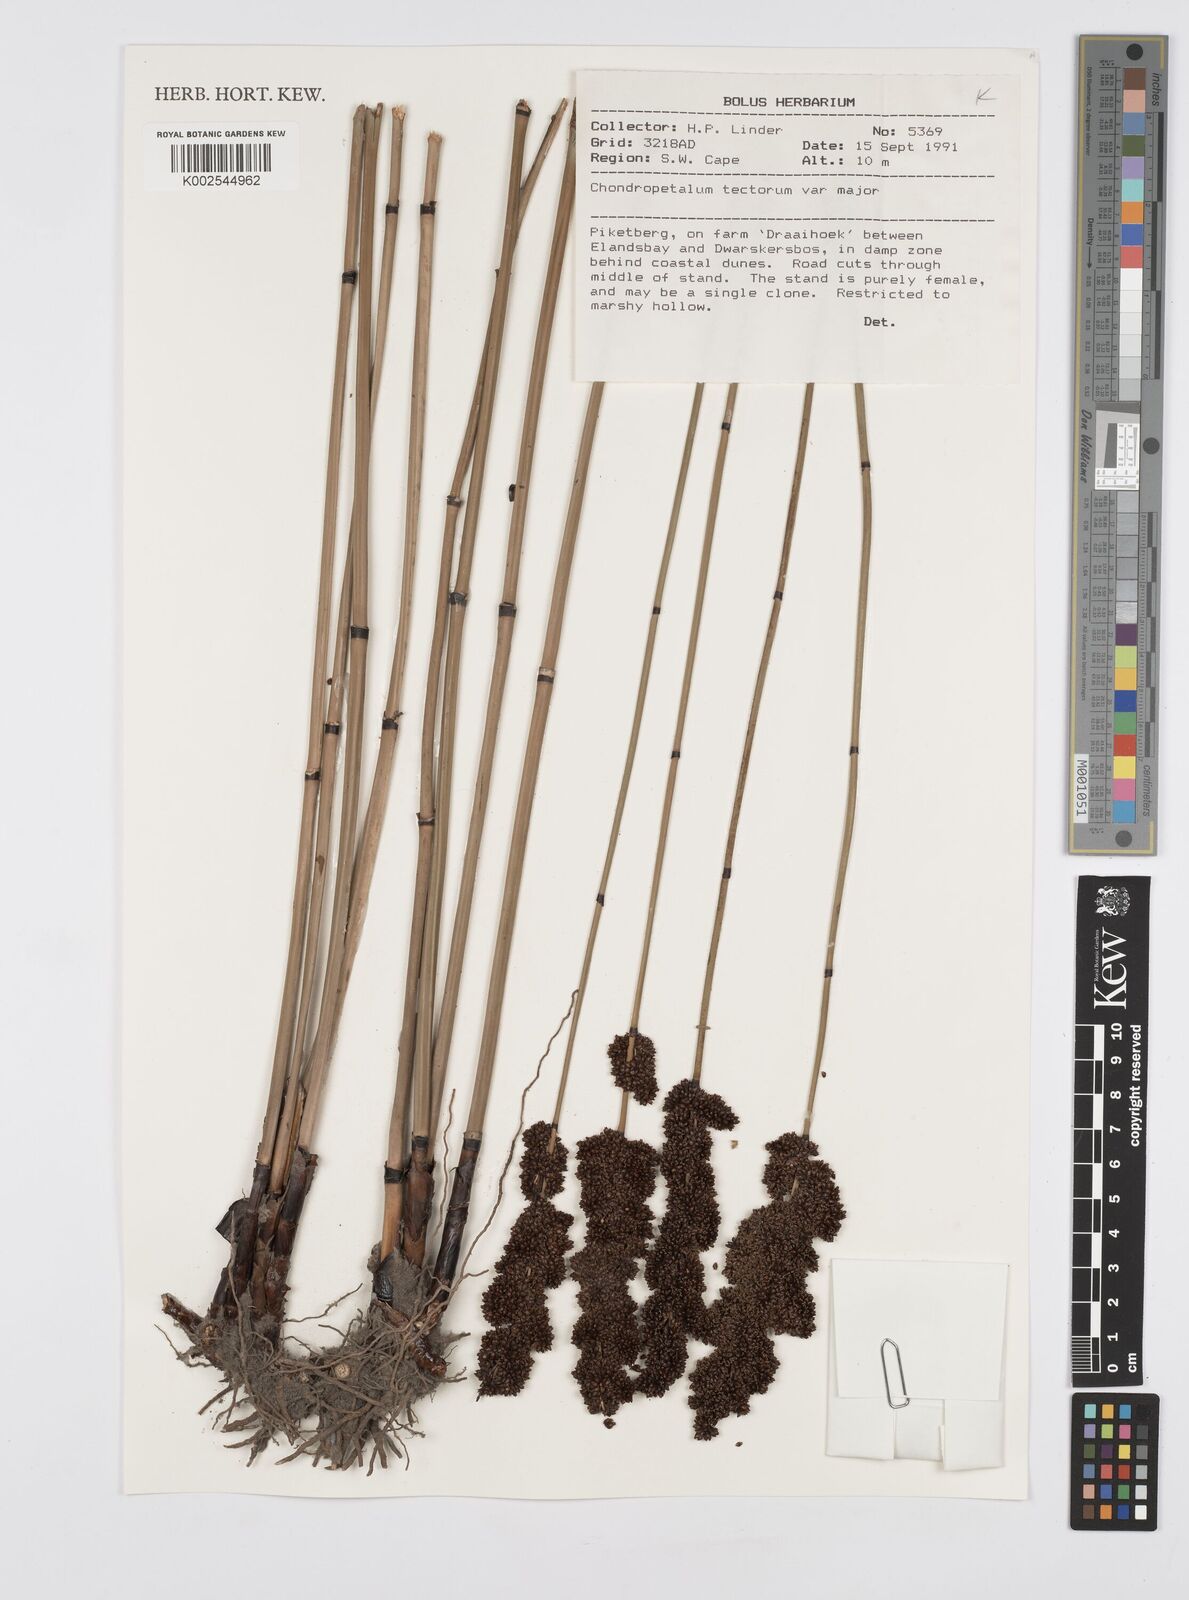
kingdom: Plantae
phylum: Tracheophyta
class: Liliopsida
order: Poales
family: Restionaceae
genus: Elegia
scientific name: Elegia tectorum
